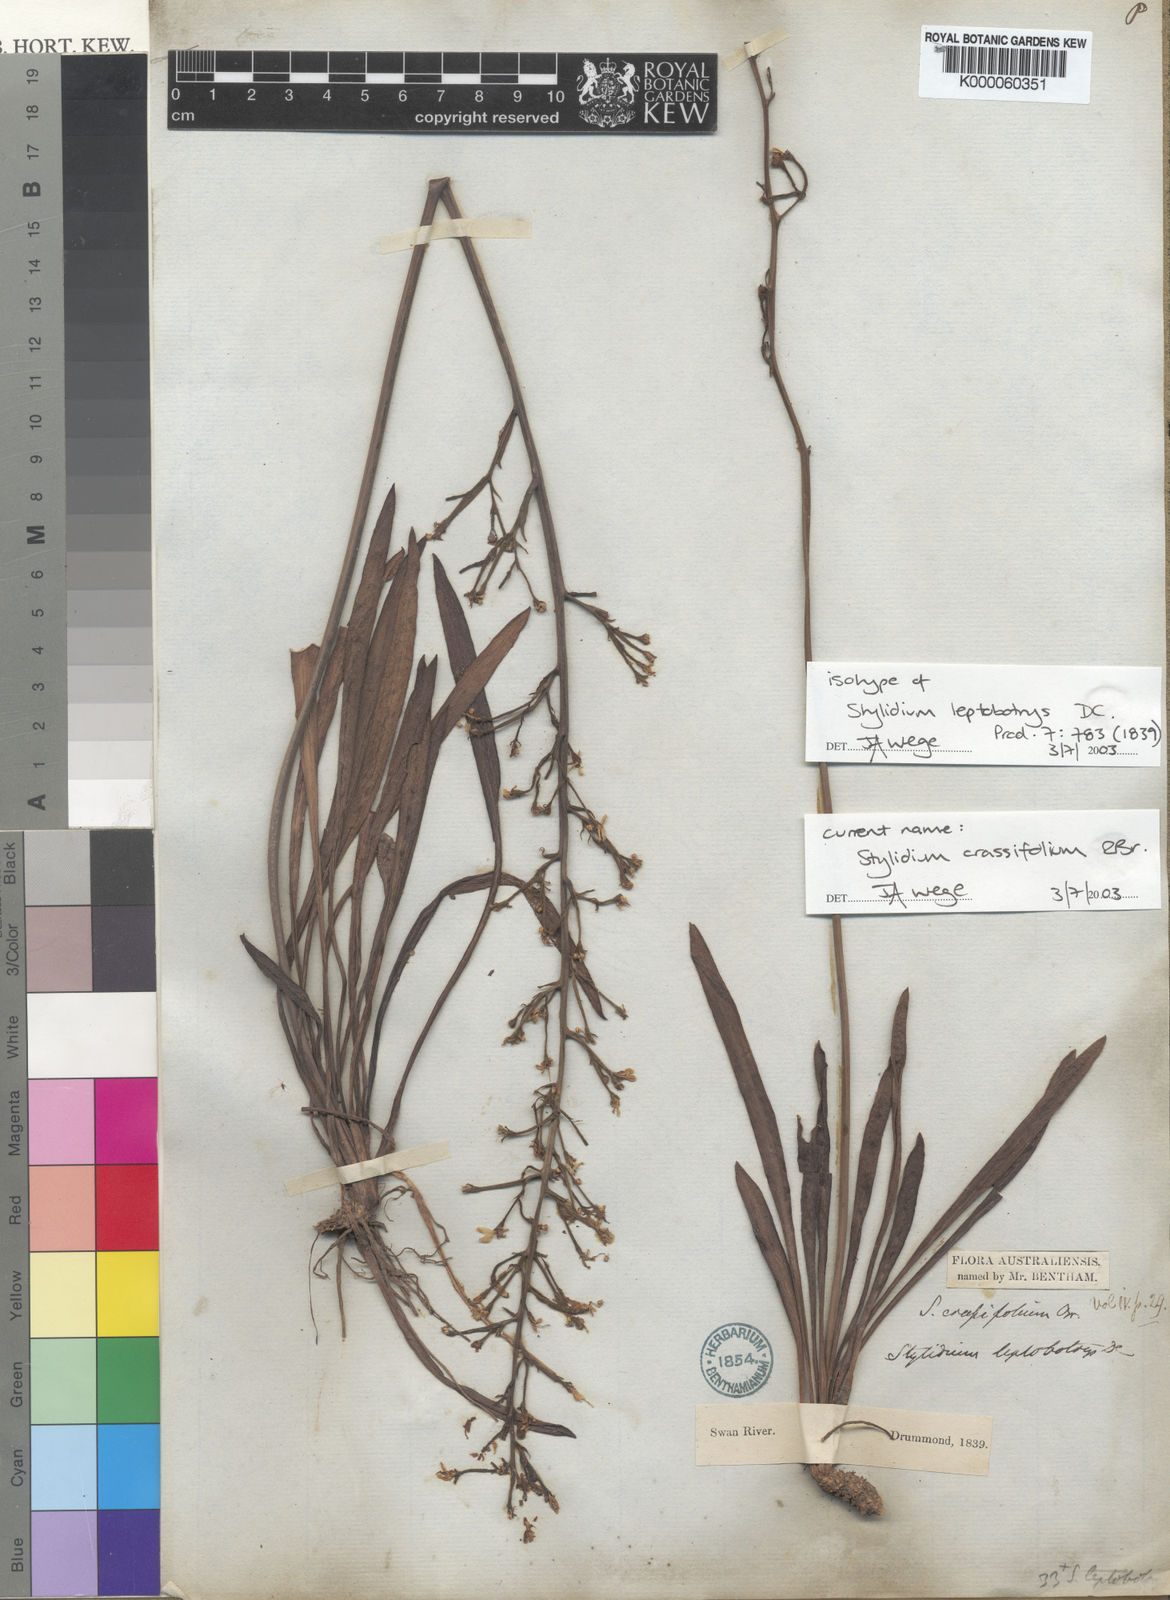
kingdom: Plantae
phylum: Tracheophyta
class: Magnoliopsida
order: Asterales
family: Stylidiaceae
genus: Stylidium
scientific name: Stylidium crassifolium
